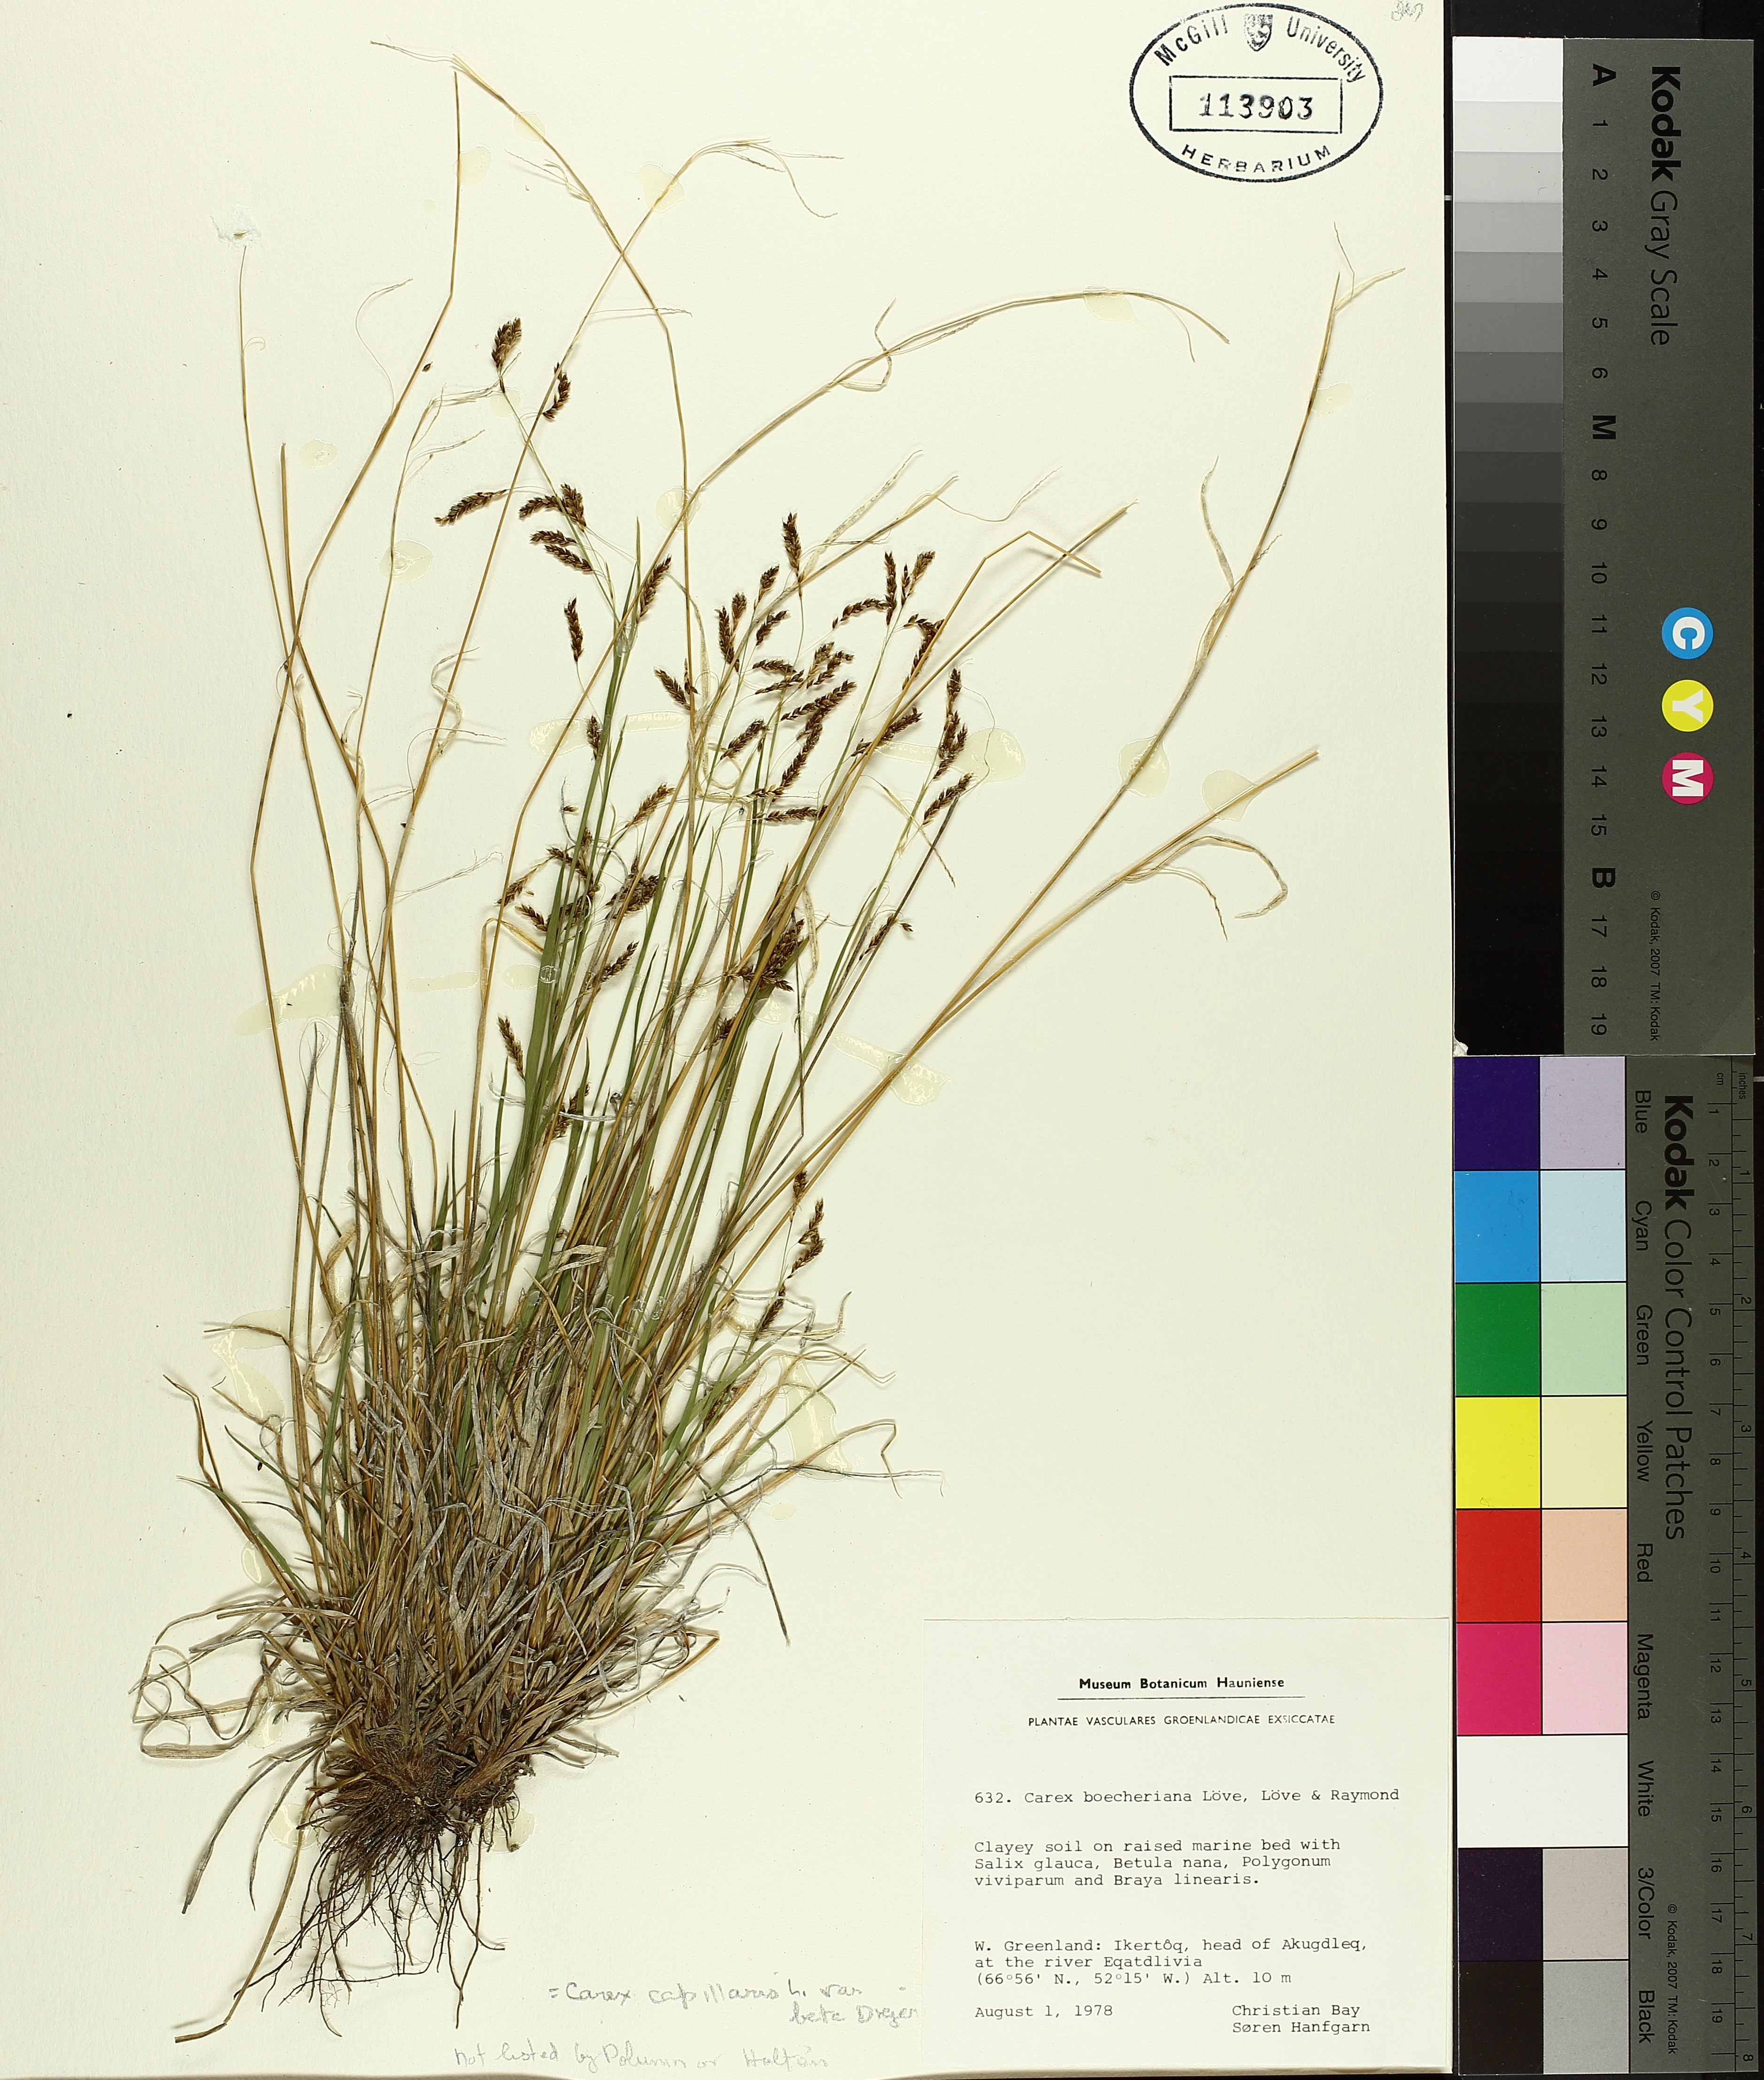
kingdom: Plantae
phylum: Tracheophyta
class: Liliopsida
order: Poales
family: Cyperaceae
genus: Carex
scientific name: Carex capillaris
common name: Hair sedge
